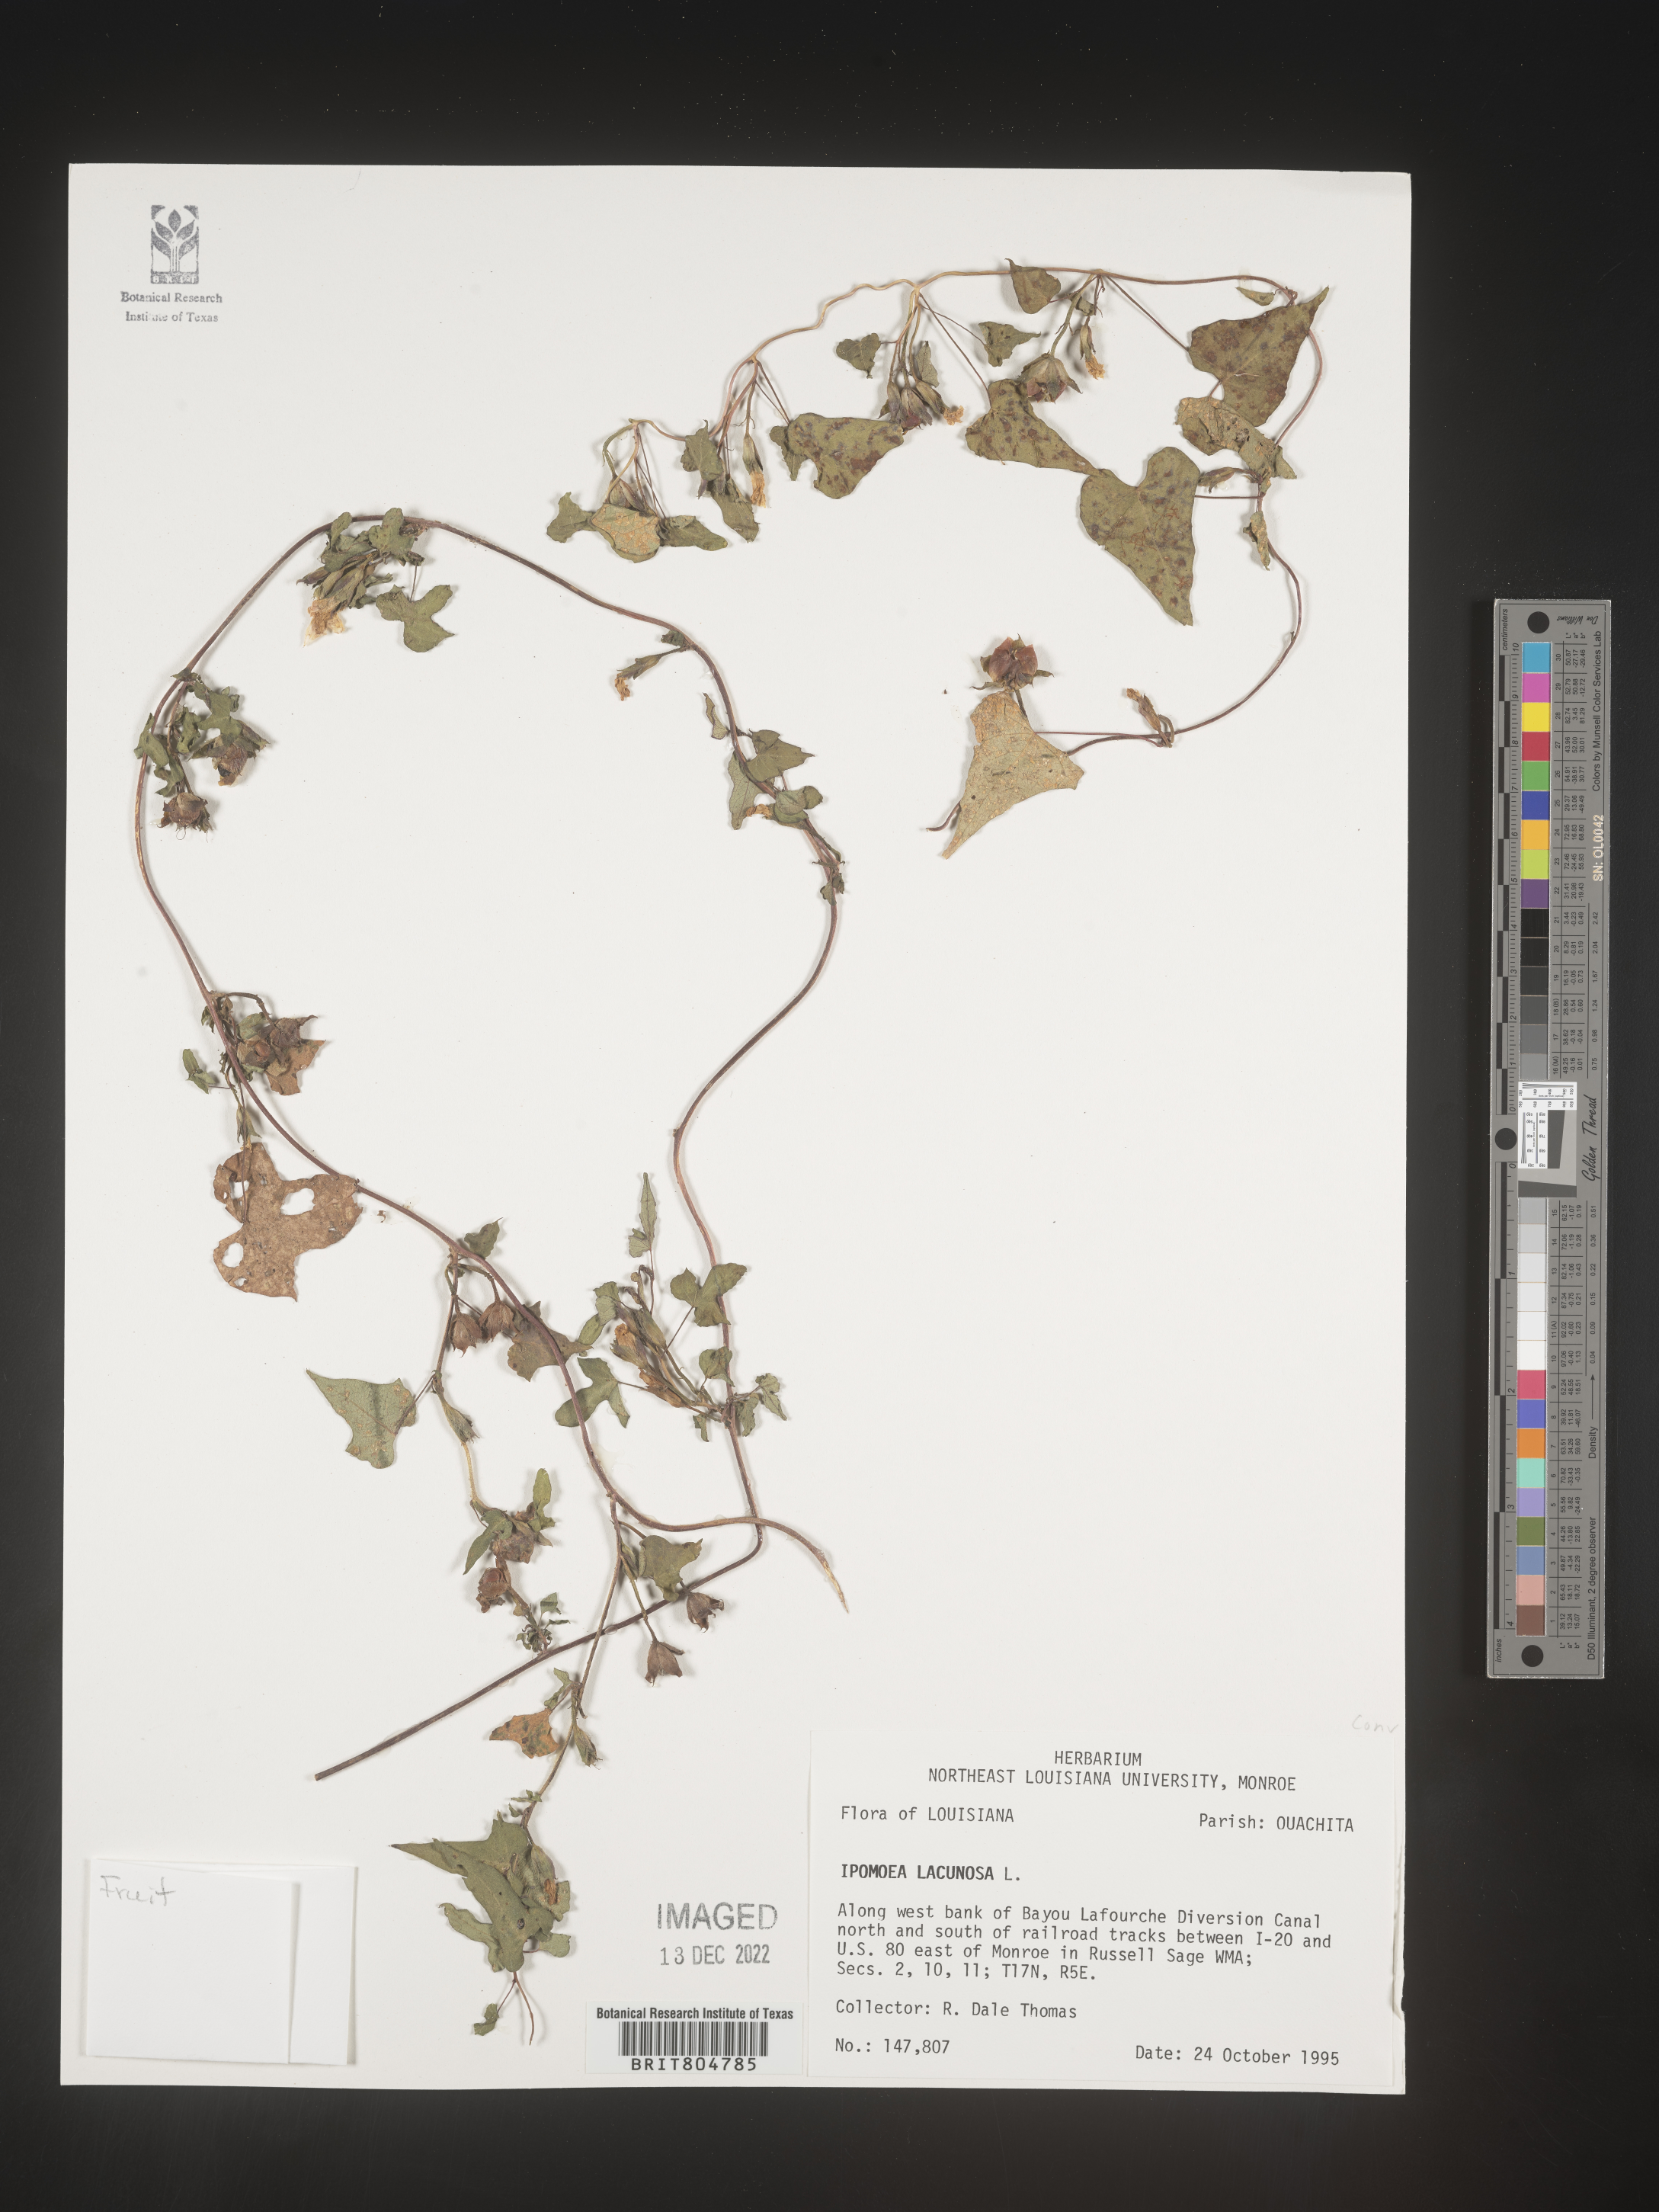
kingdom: Plantae
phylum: Tracheophyta
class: Magnoliopsida
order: Solanales
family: Convolvulaceae
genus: Ipomoea
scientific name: Ipomoea lacunosa
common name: White morning-glory
